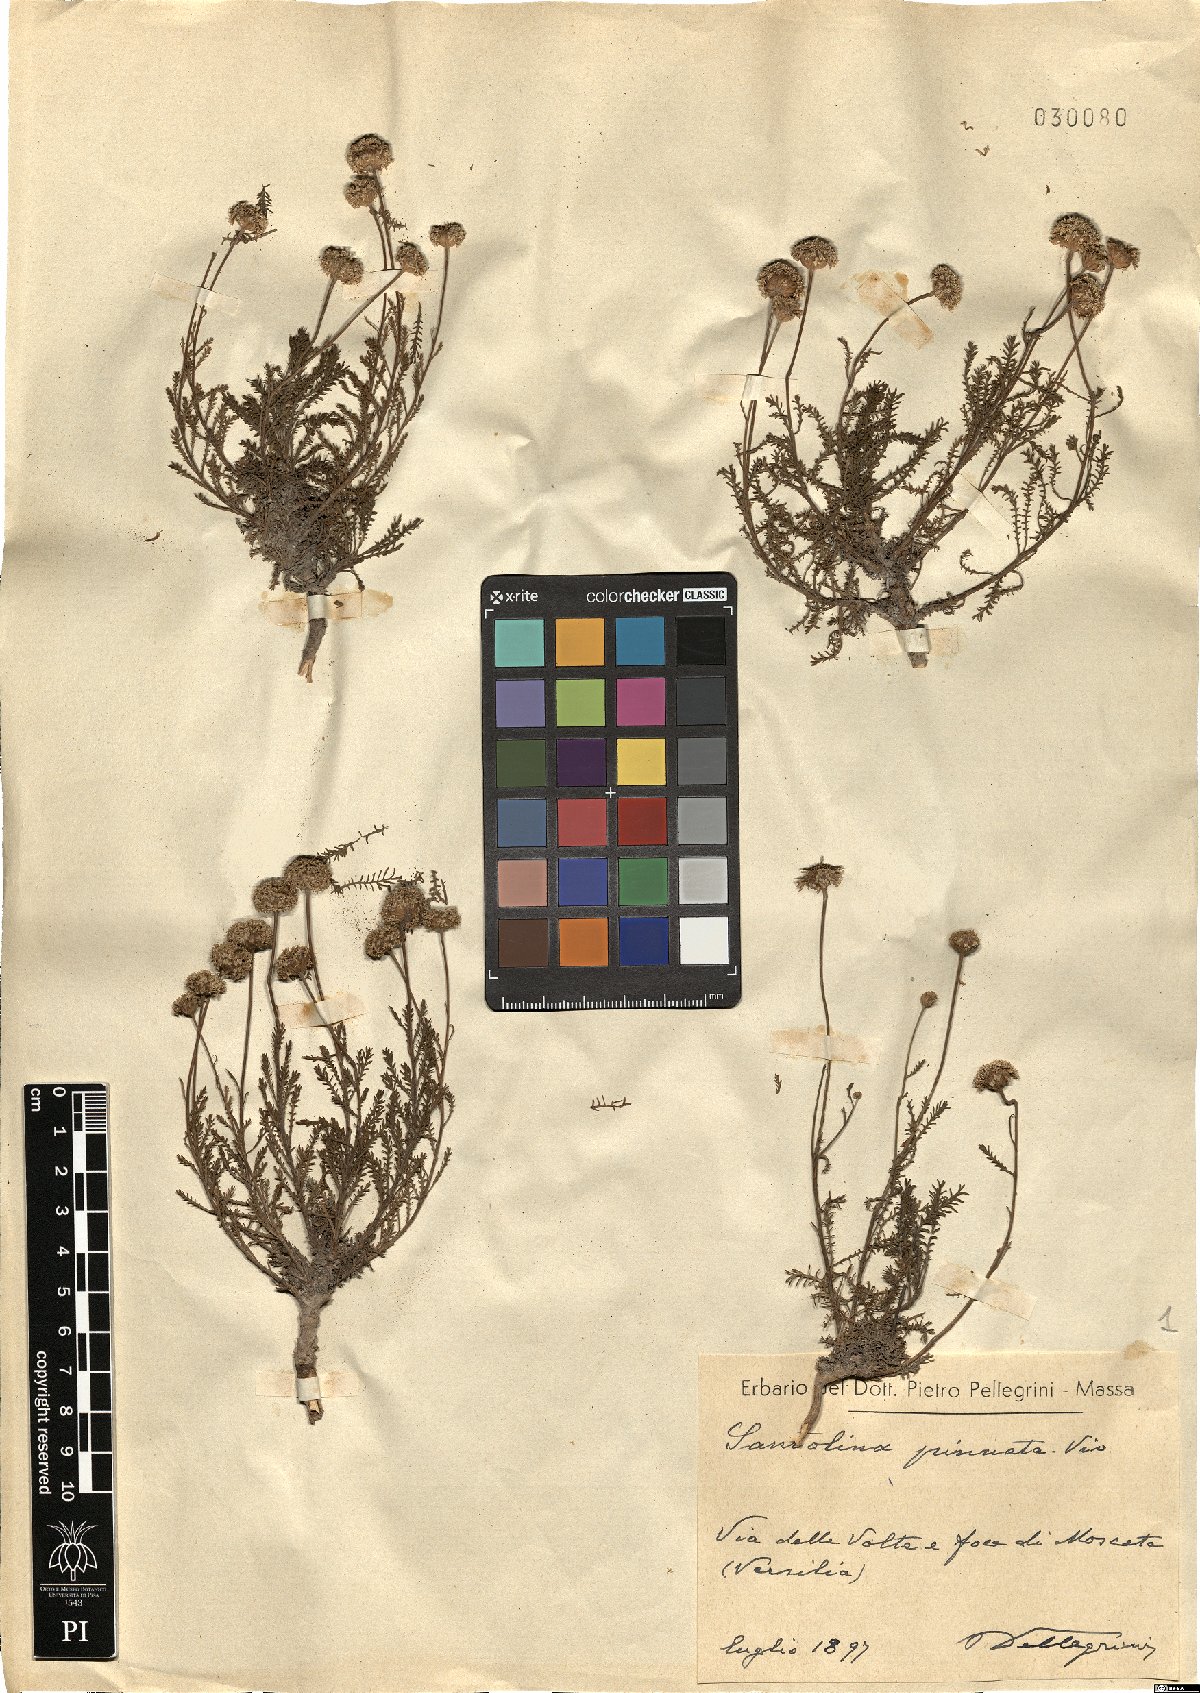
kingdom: Plantae
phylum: Tracheophyta
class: Magnoliopsida
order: Asterales
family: Asteraceae
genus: Santolina
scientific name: Santolina pinnata
